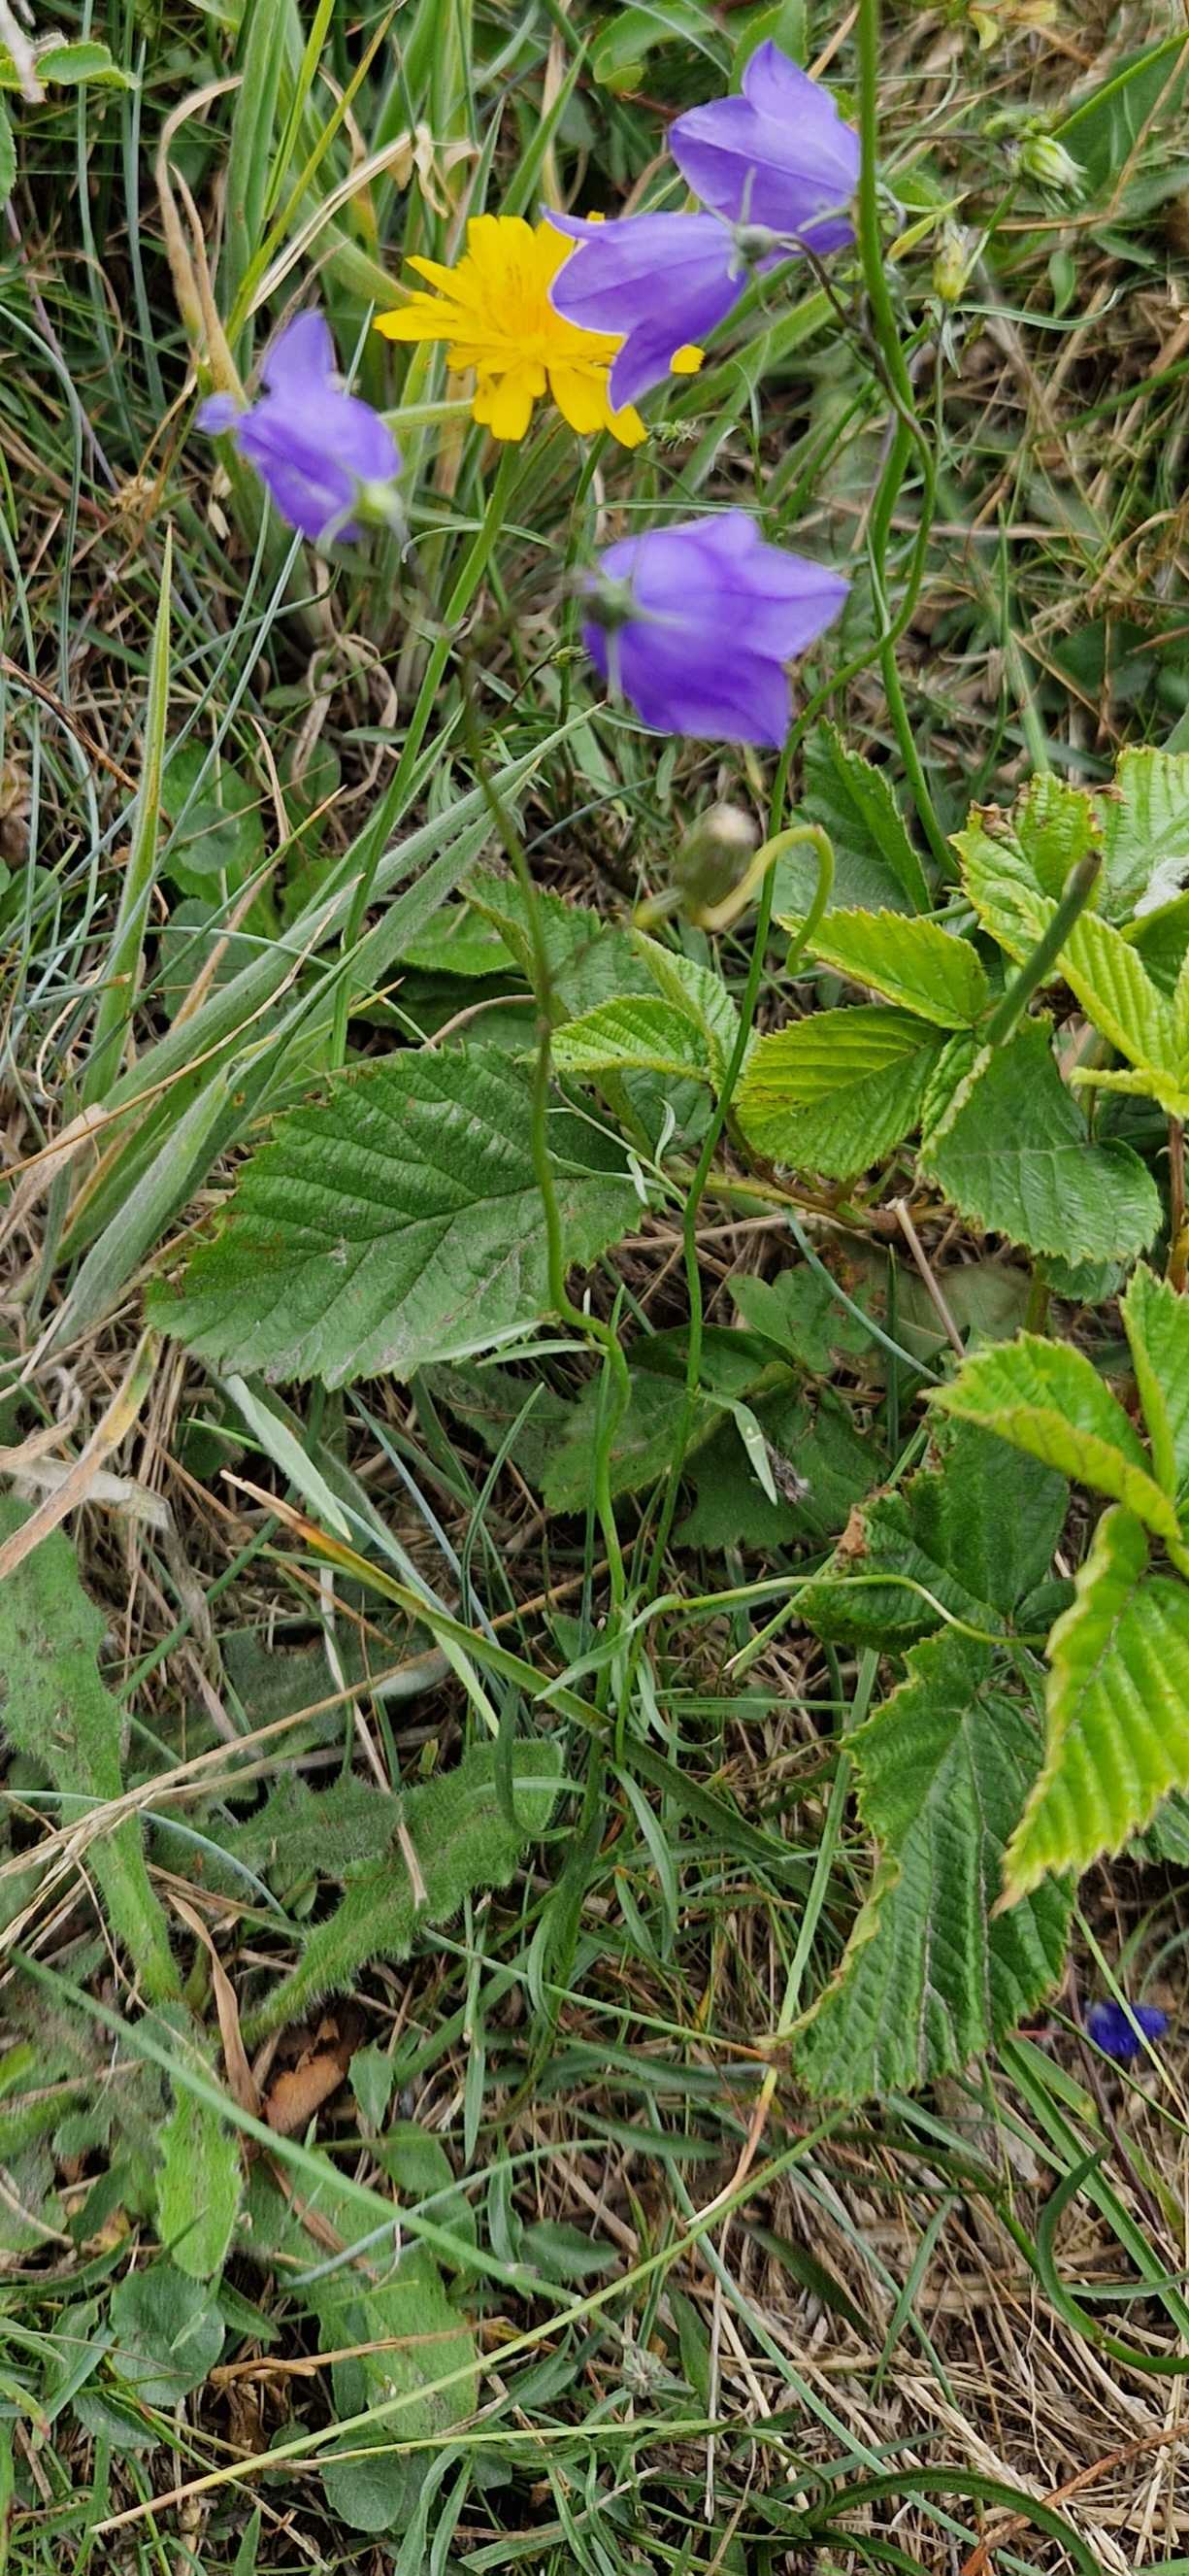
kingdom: Plantae
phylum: Tracheophyta
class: Magnoliopsida
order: Asterales
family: Campanulaceae
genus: Campanula
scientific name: Campanula rotundifolia
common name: Liden klokke
